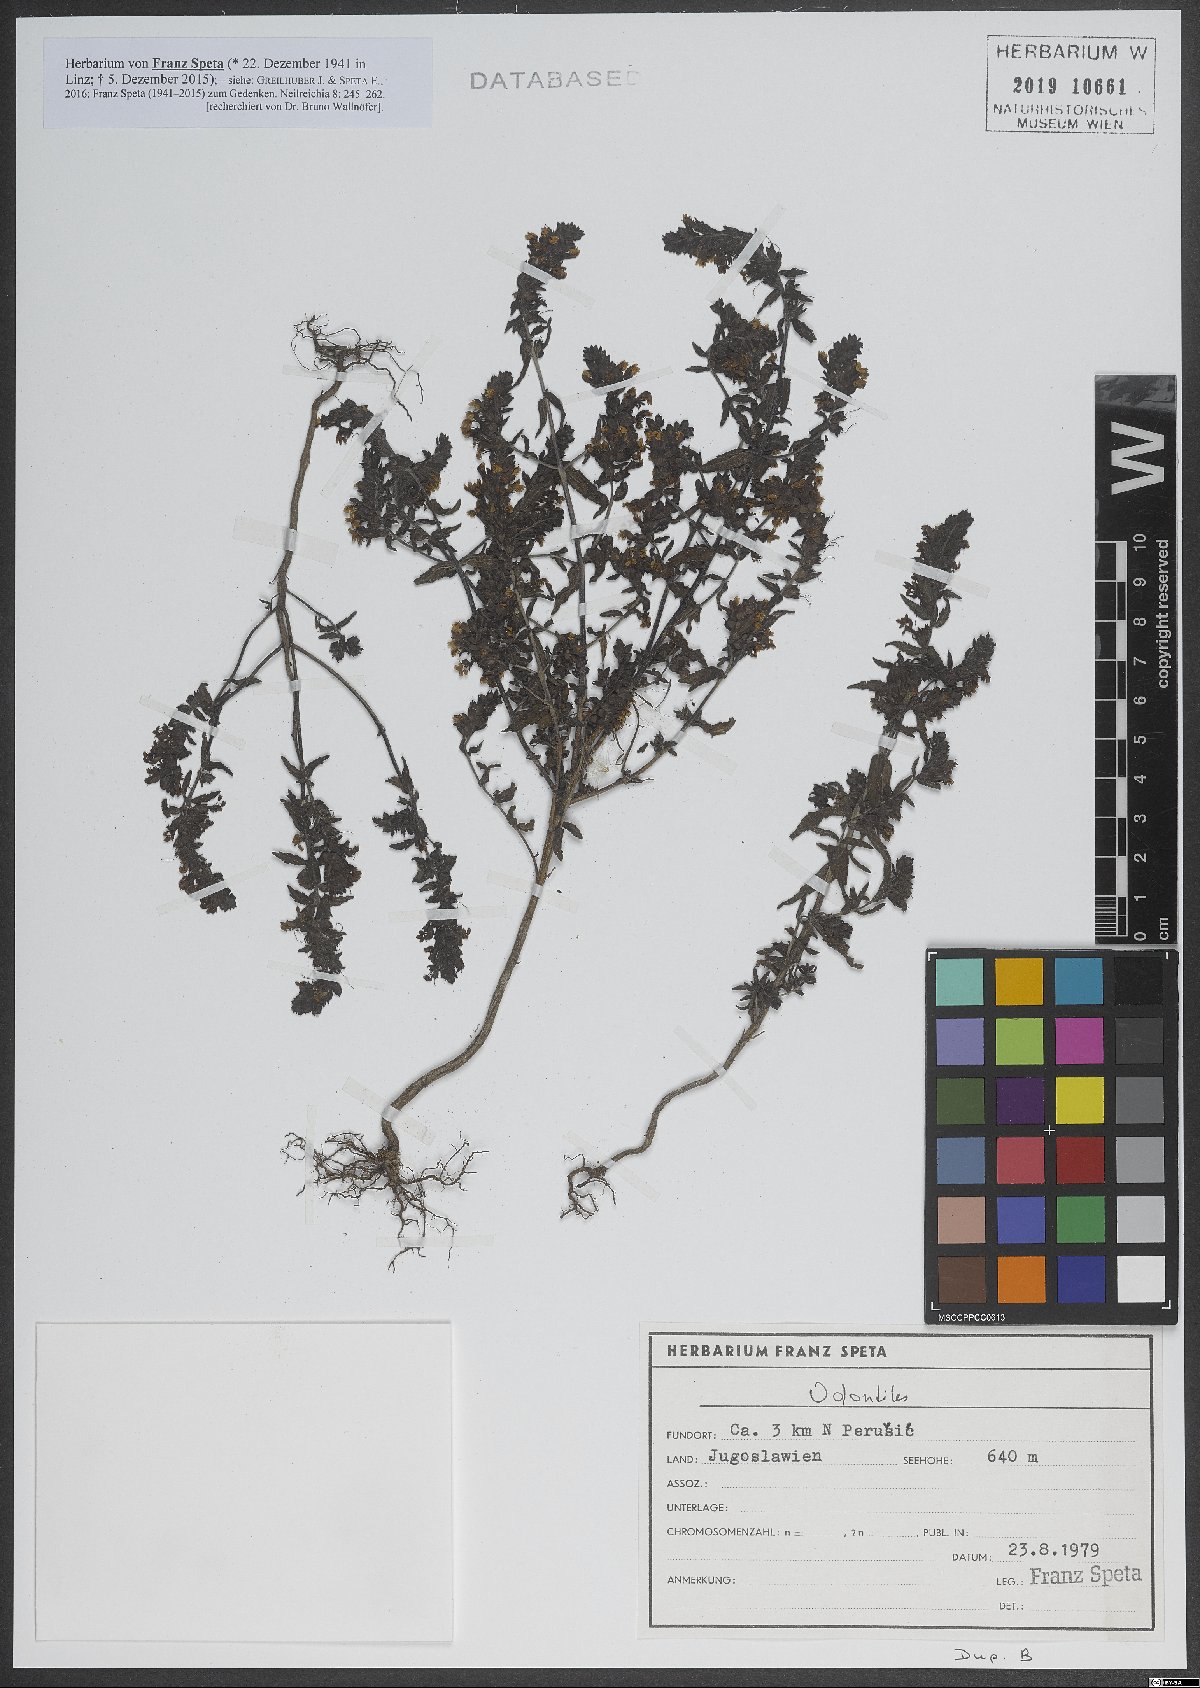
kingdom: Plantae
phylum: Tracheophyta
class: Magnoliopsida
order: Lamiales
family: Orobanchaceae
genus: Odontites
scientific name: Odontites
